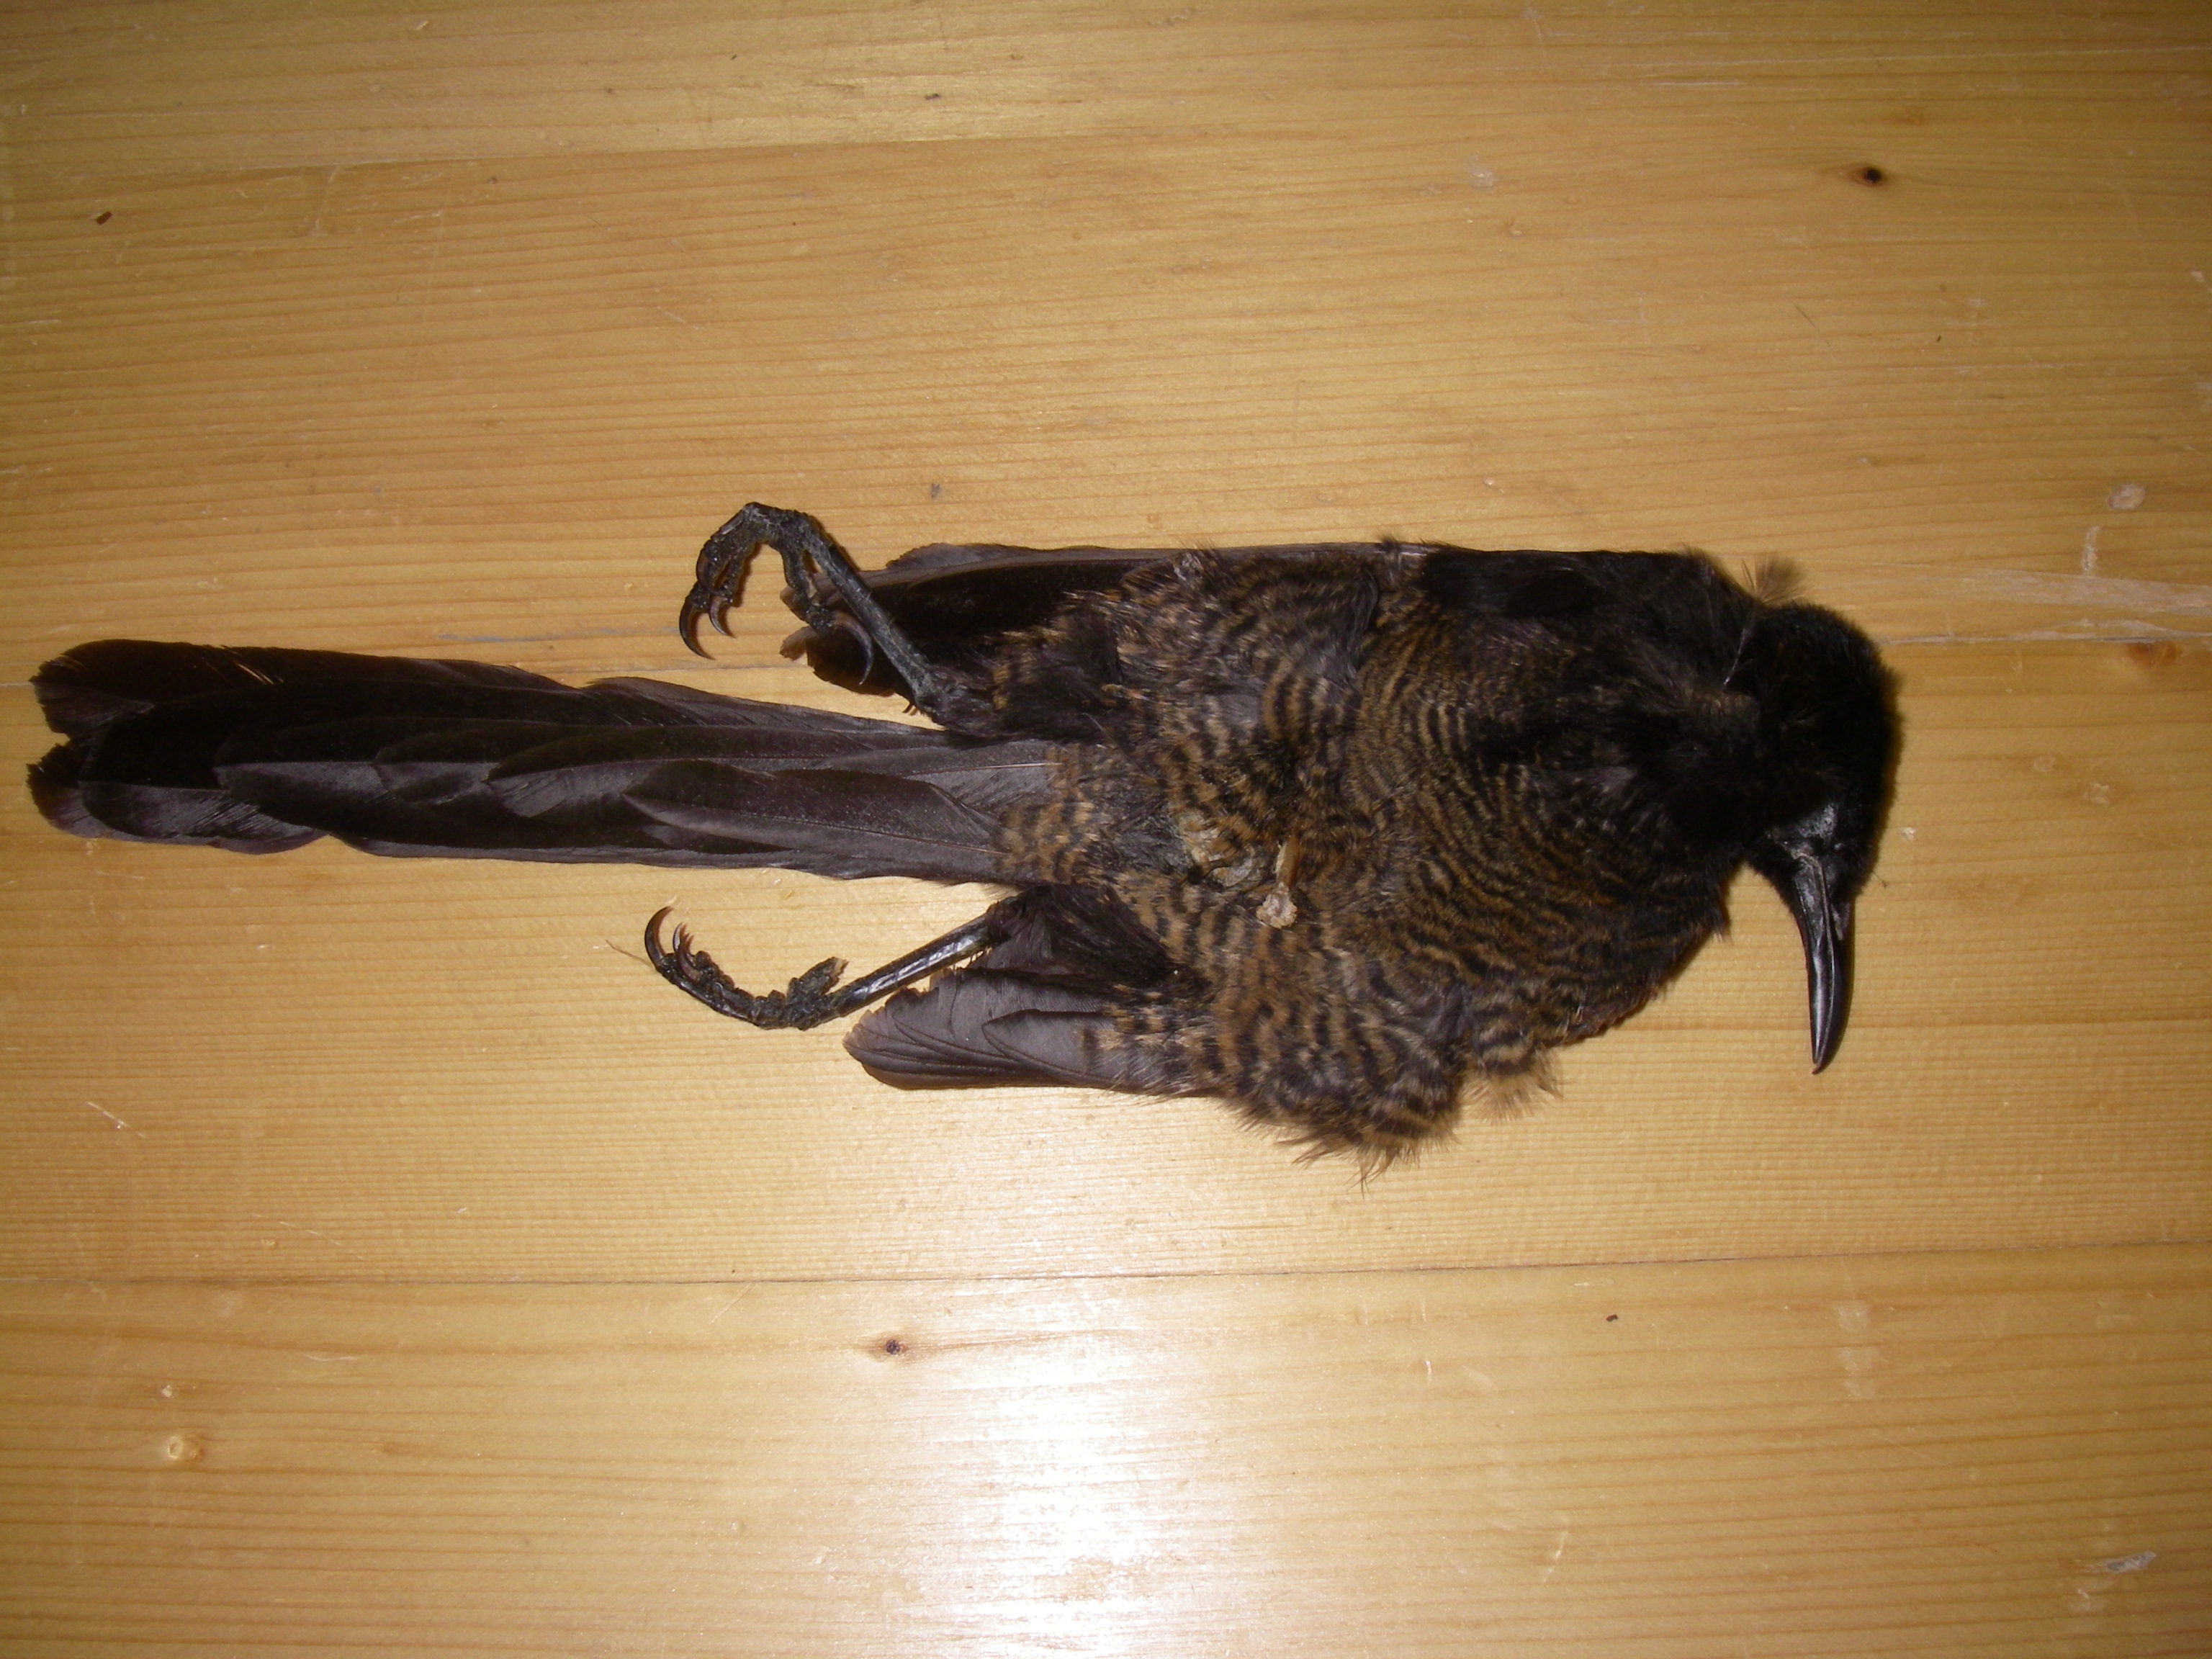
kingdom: Animalia
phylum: Chordata
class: Aves
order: Passeriformes
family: Paradisaeidae
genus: Astrapia
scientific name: Astrapia stephaniae
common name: Princess stephanie's astrapia
